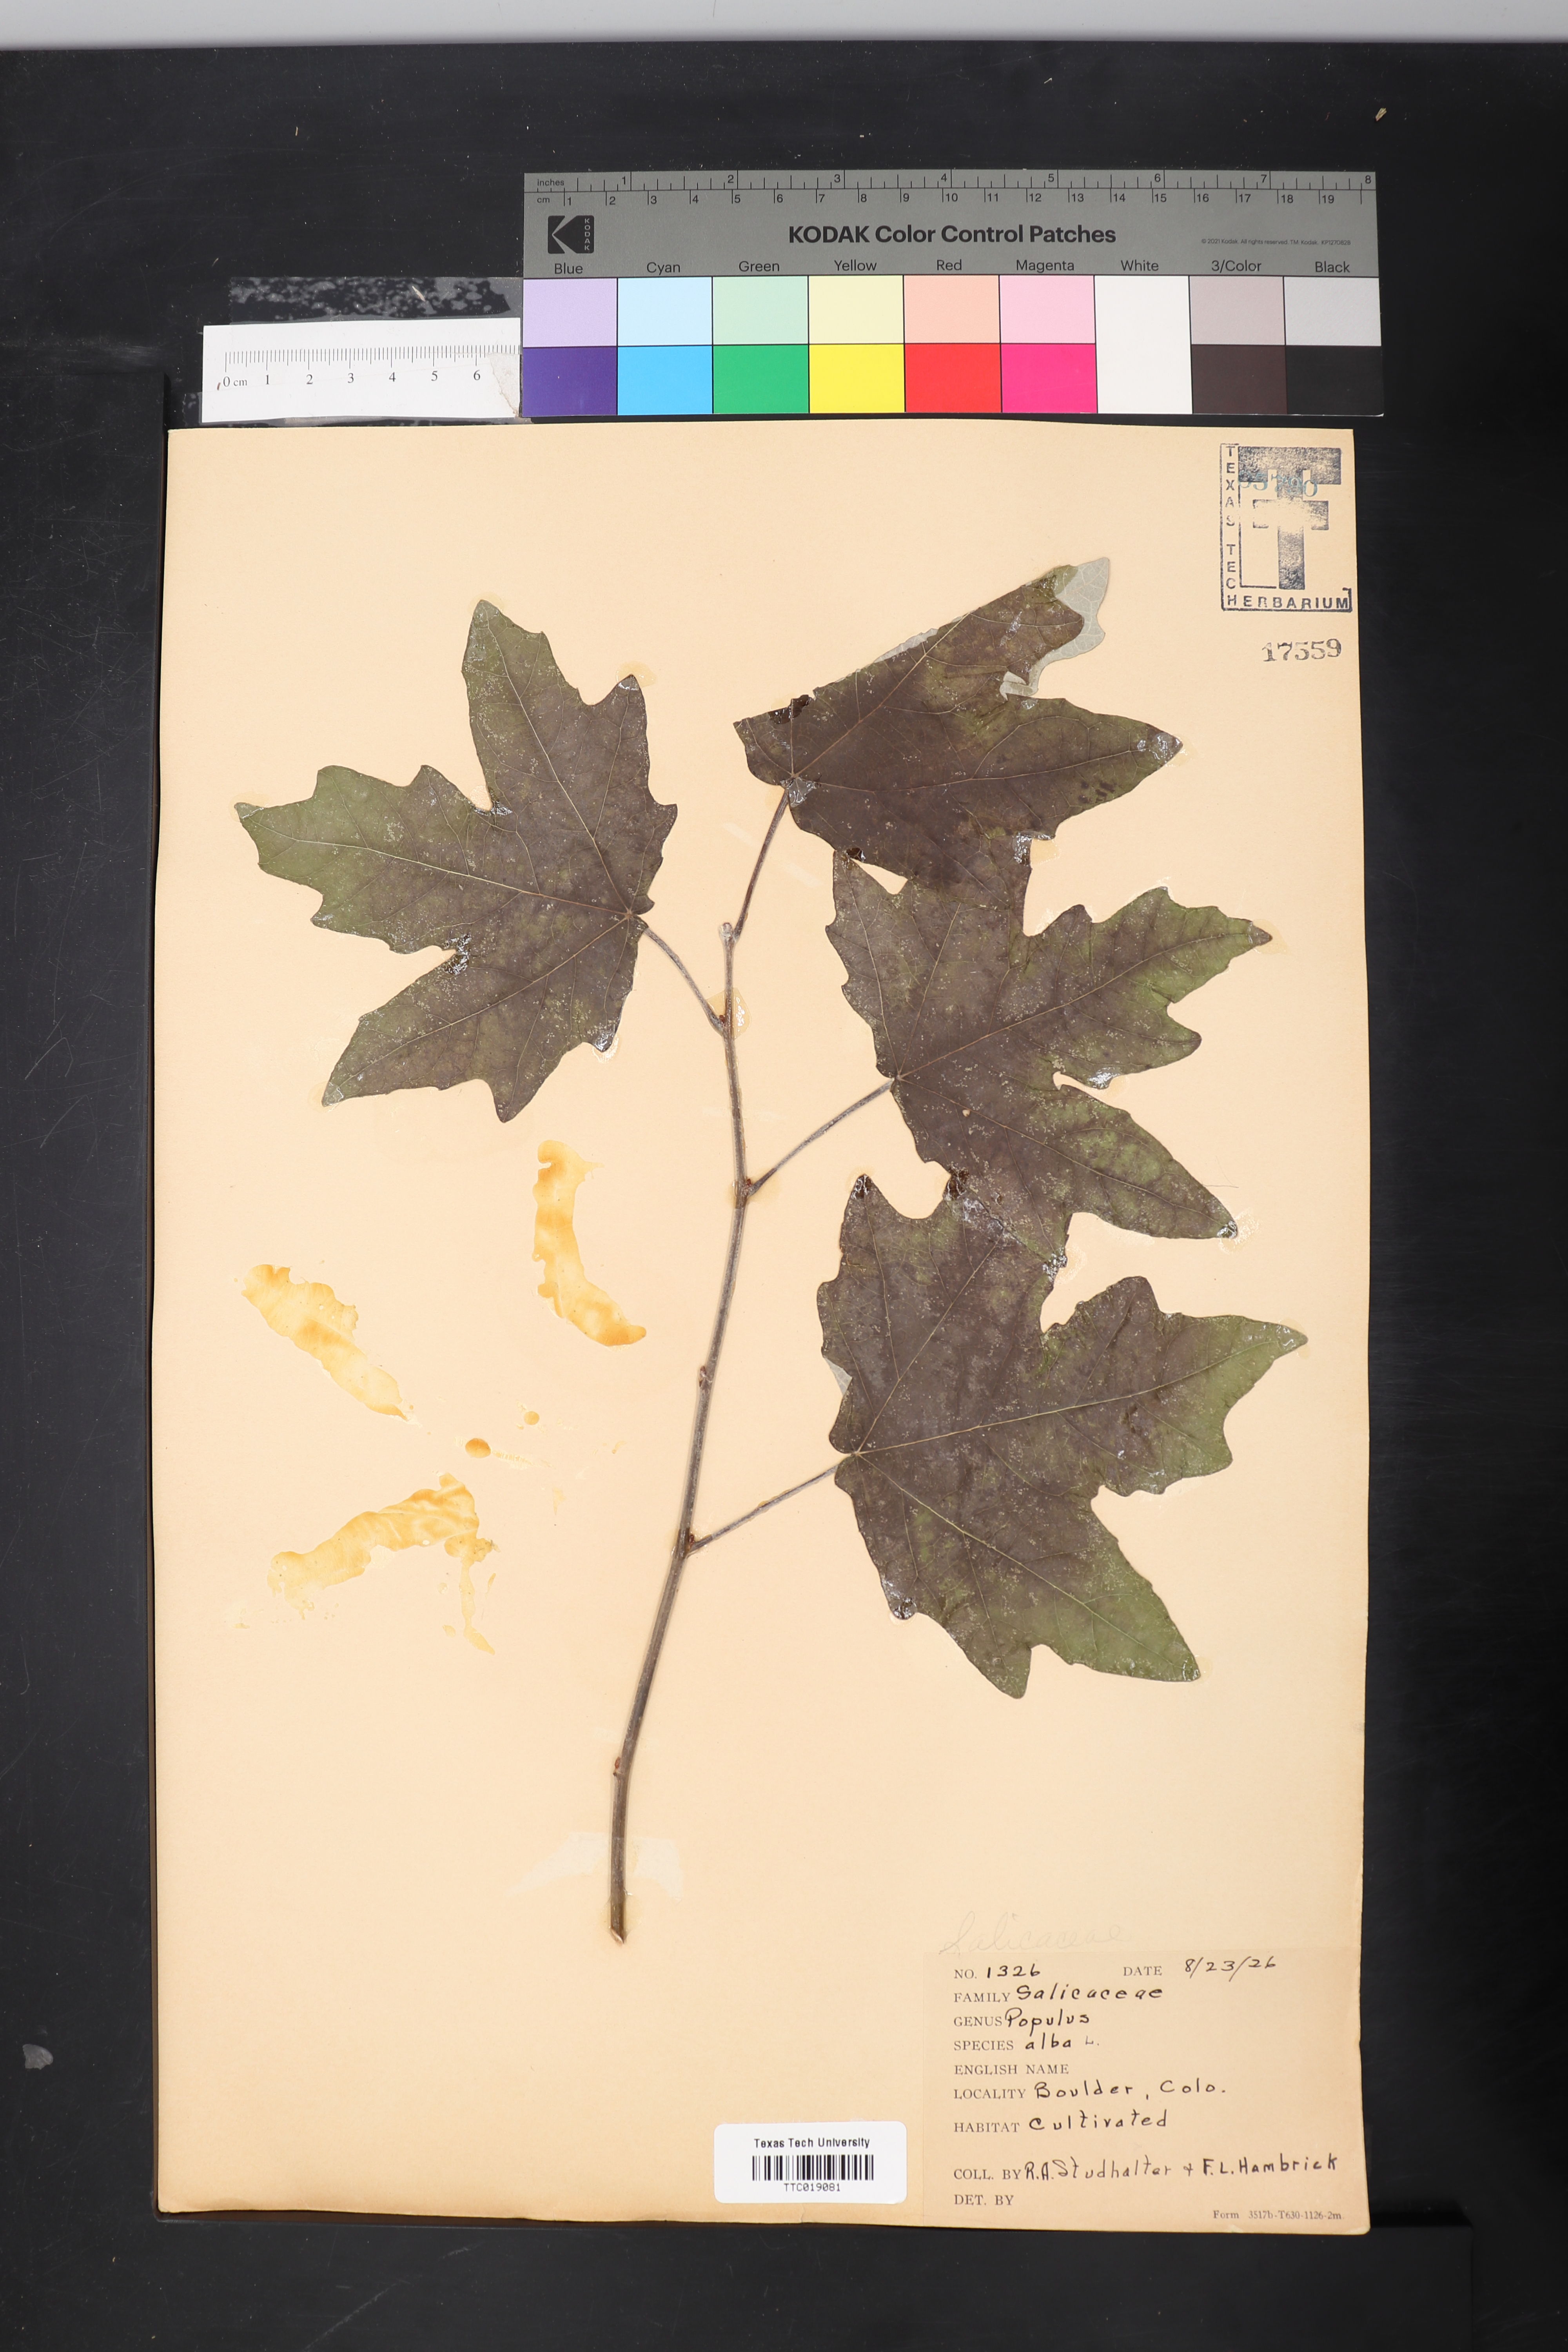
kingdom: Plantae
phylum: Tracheophyta
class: Magnoliopsida
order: Malpighiales
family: Salicaceae
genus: Populus
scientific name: Populus alba
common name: White poplar
